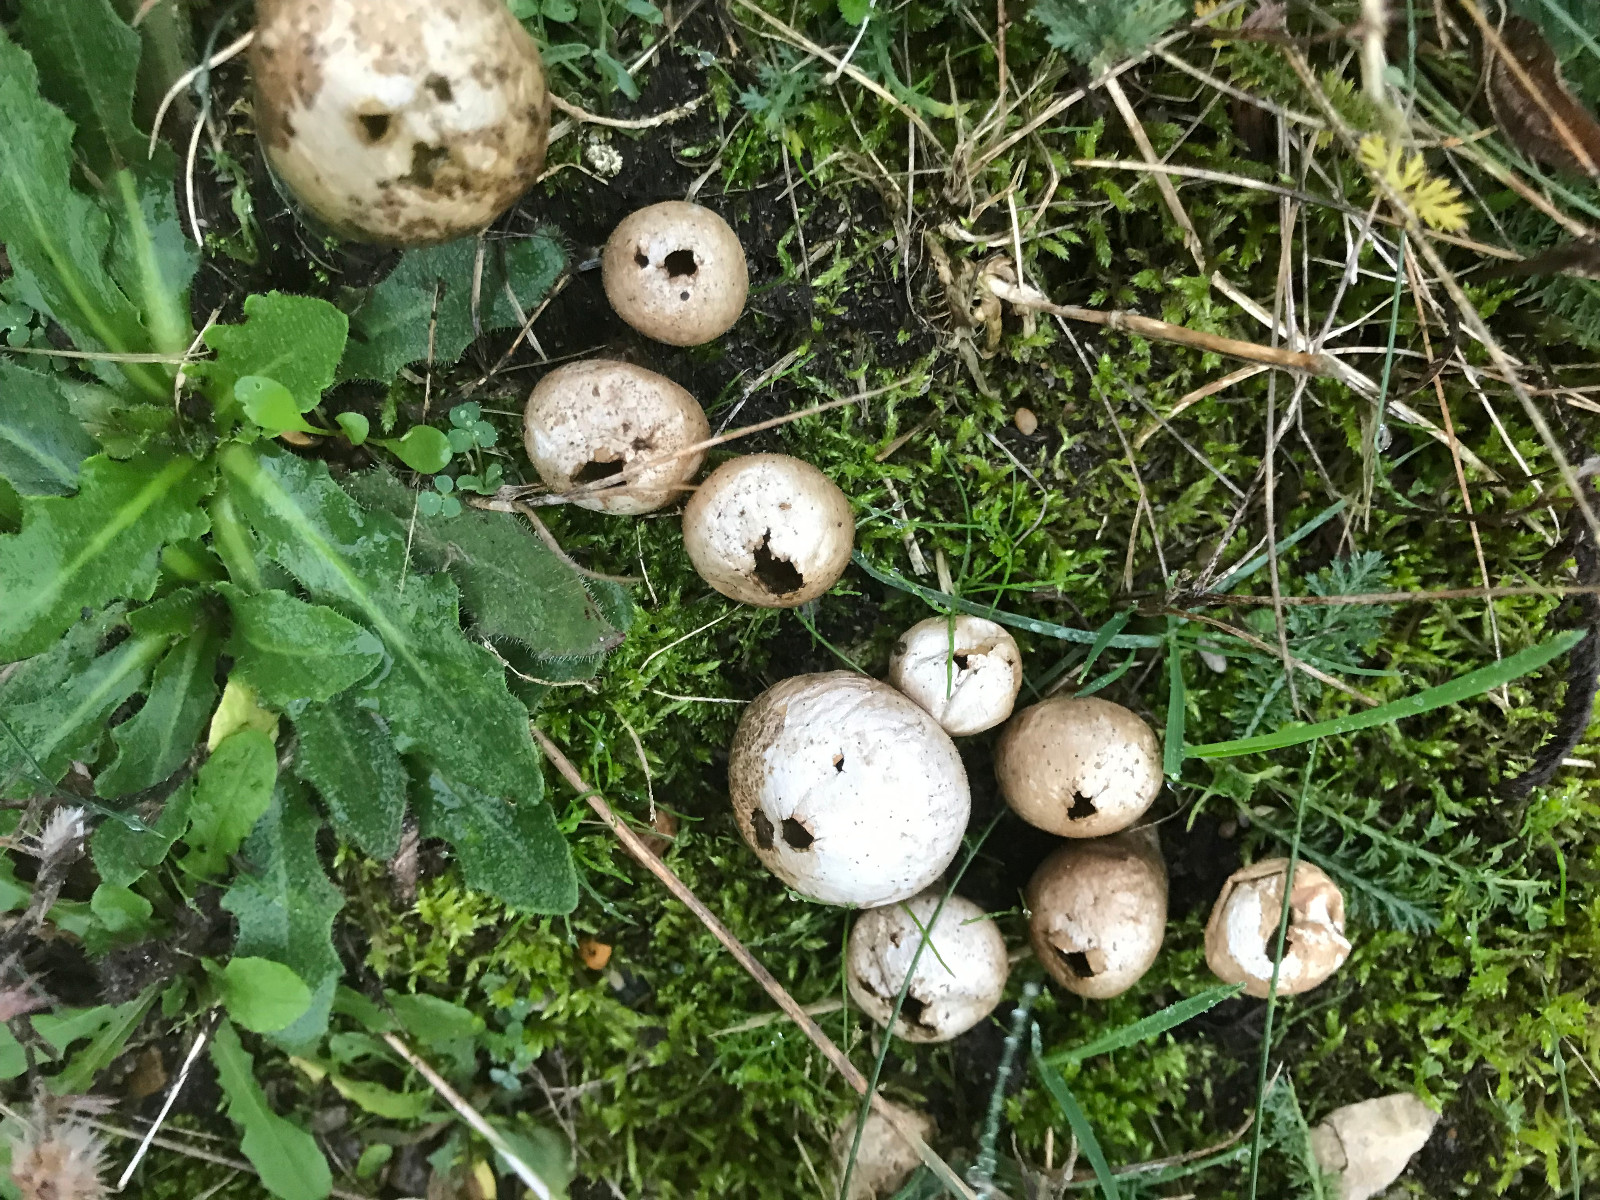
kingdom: Fungi
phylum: Basidiomycota
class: Agaricomycetes
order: Agaricales
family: Lycoperdaceae
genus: Lycoperdon
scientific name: Lycoperdon lividum
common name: mark-støvbold
